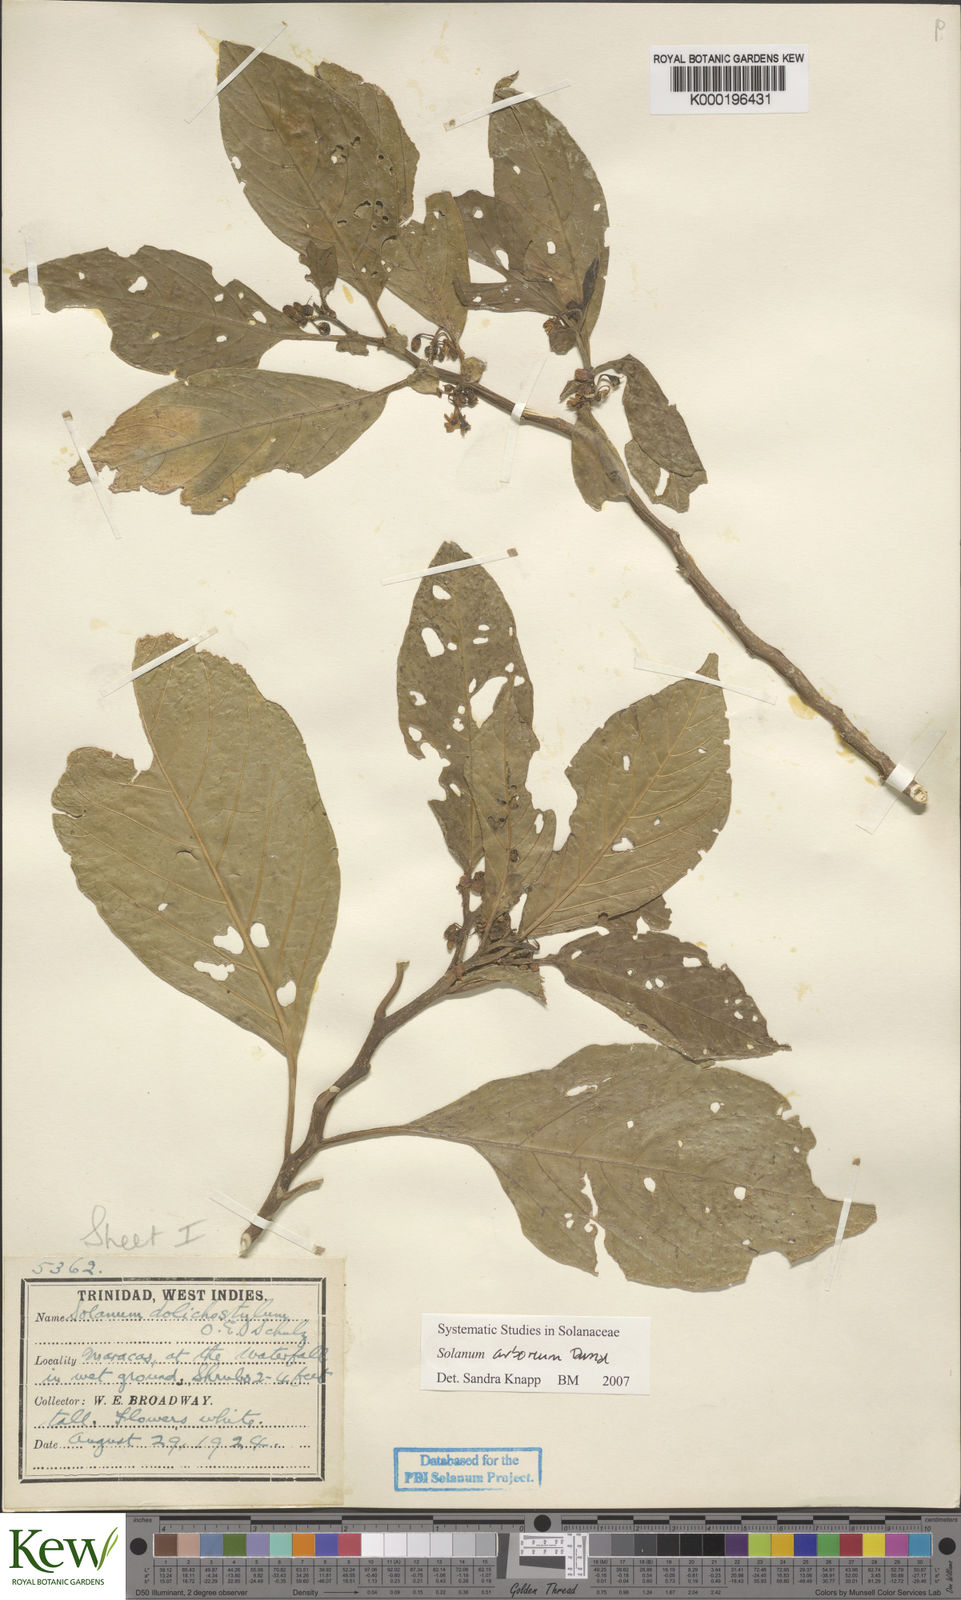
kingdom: Plantae
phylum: Tracheophyta
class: Magnoliopsida
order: Solanales
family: Solanaceae
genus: Solanum
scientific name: Solanum arboreum
